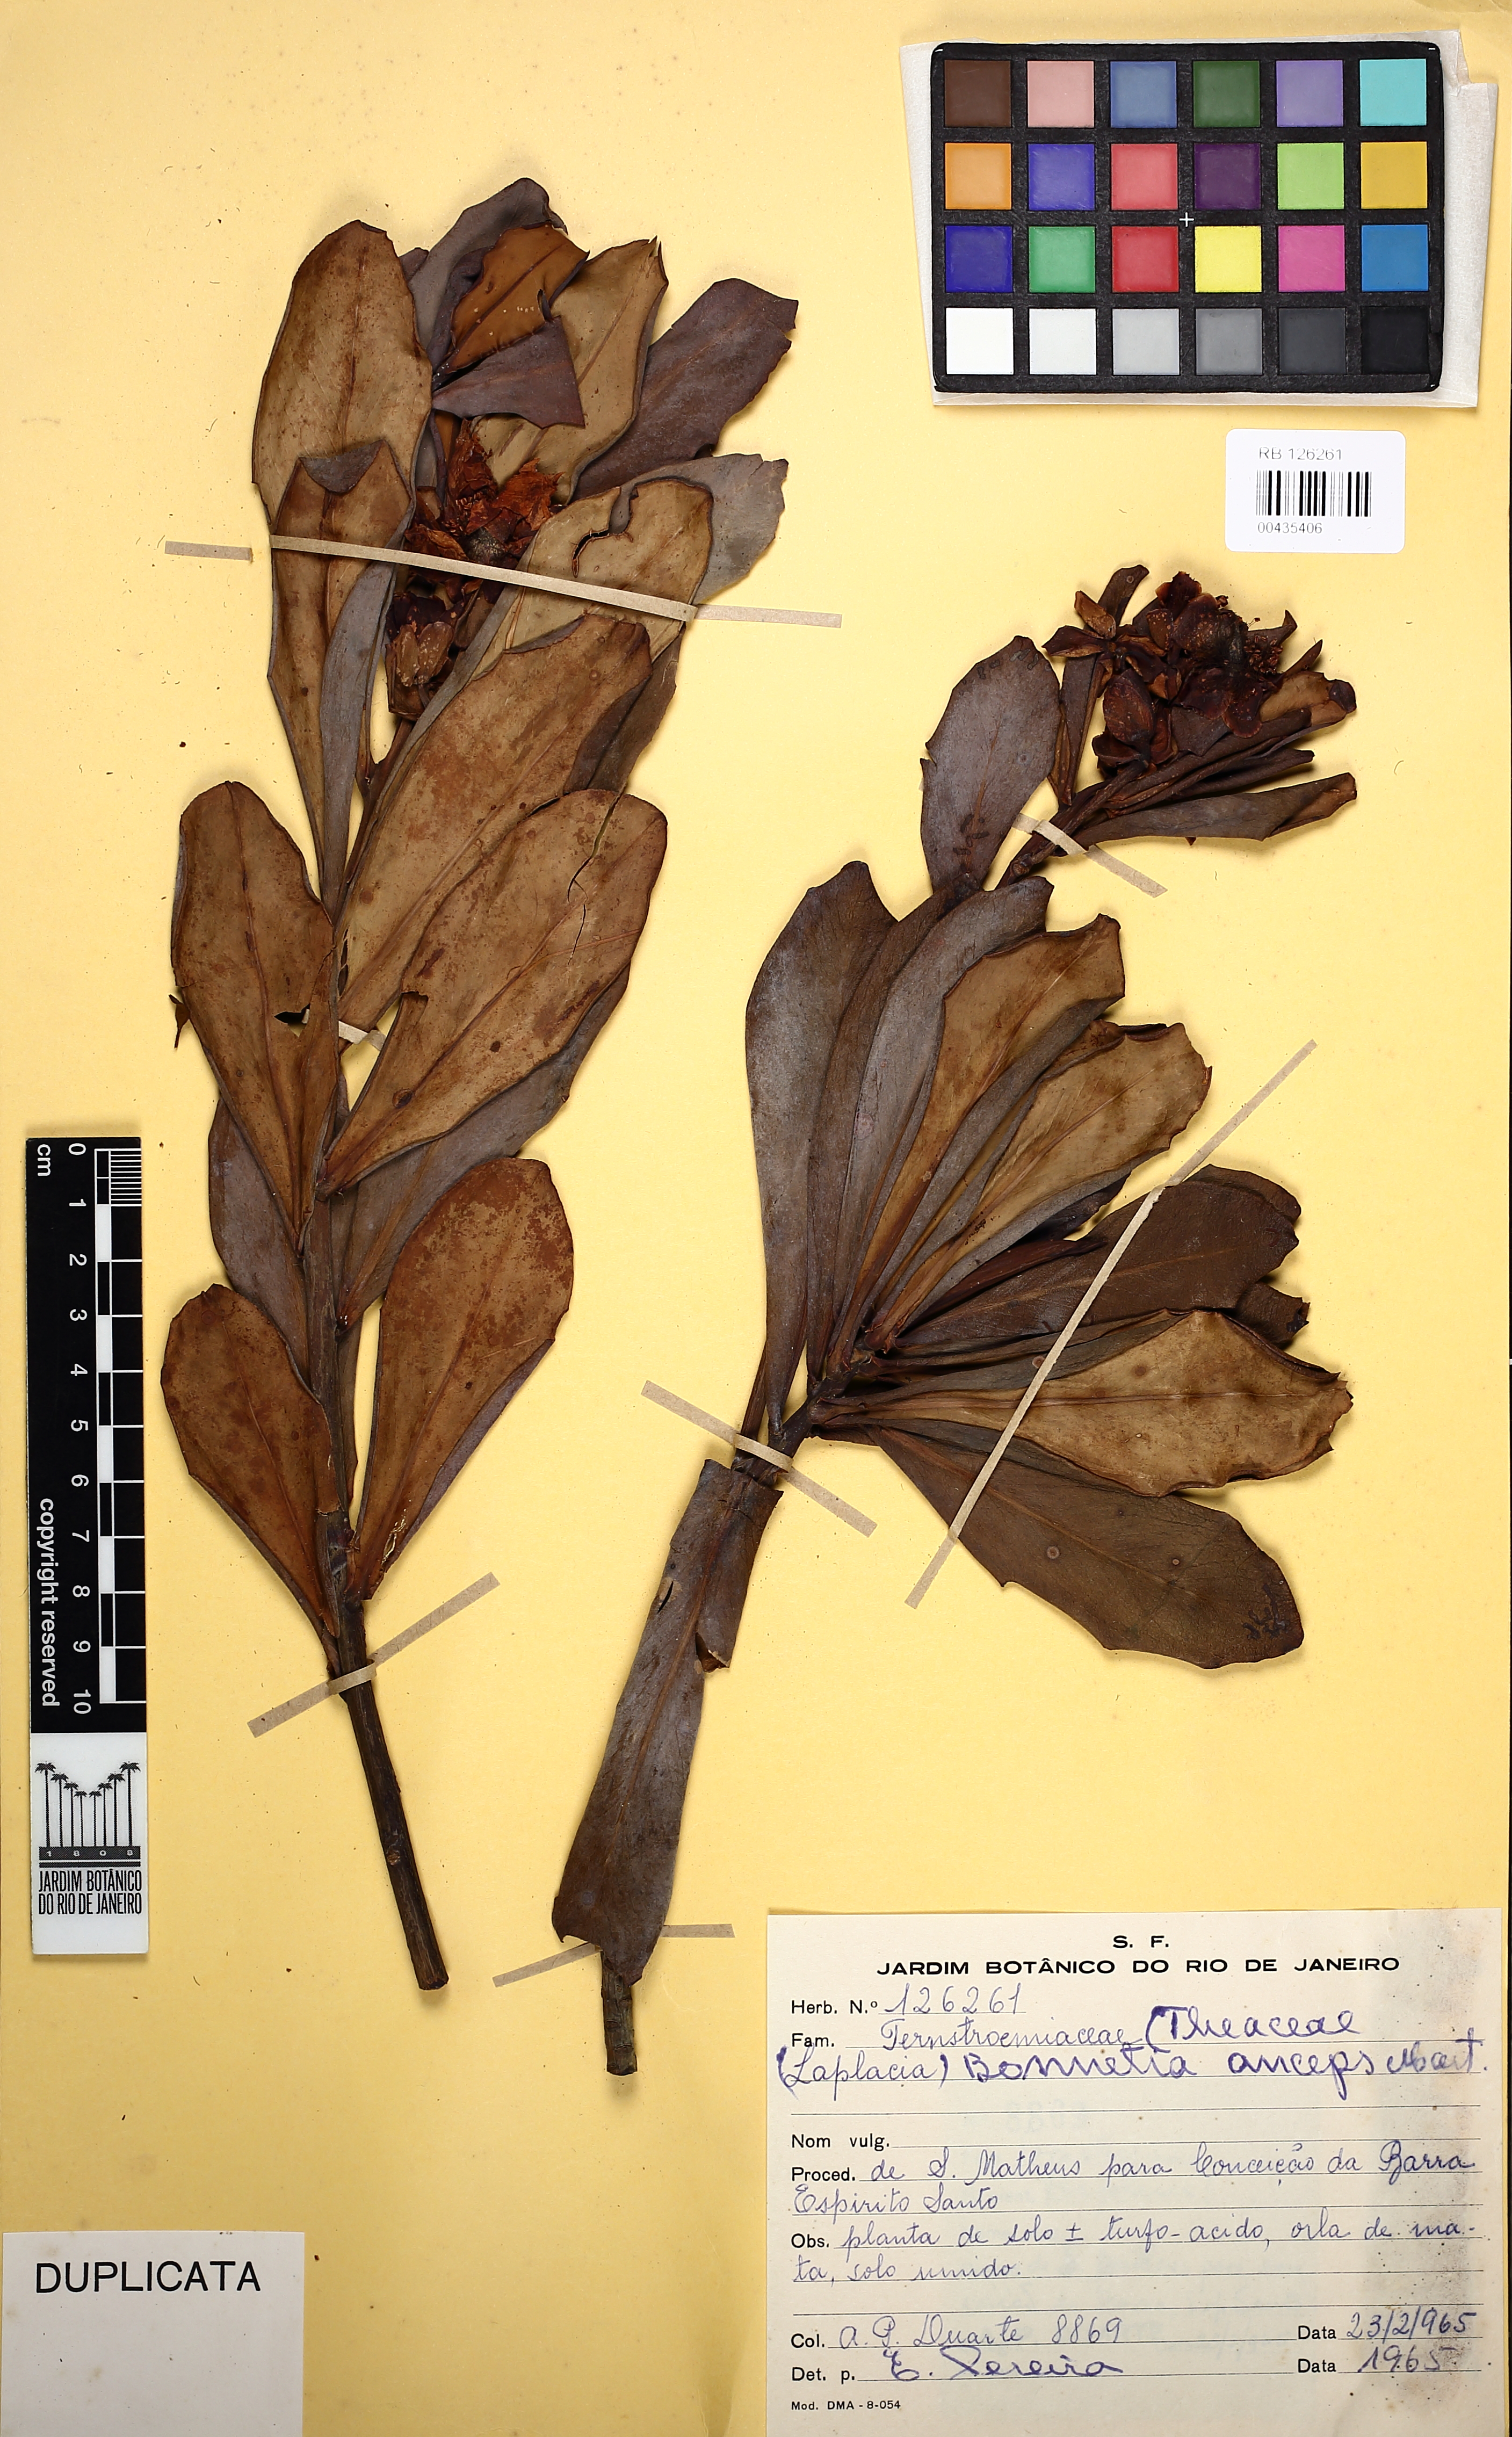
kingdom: Plantae
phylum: Tracheophyta
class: Magnoliopsida
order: Malpighiales
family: Bonnetiaceae
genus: Bonnetia
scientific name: Bonnetia anceps
